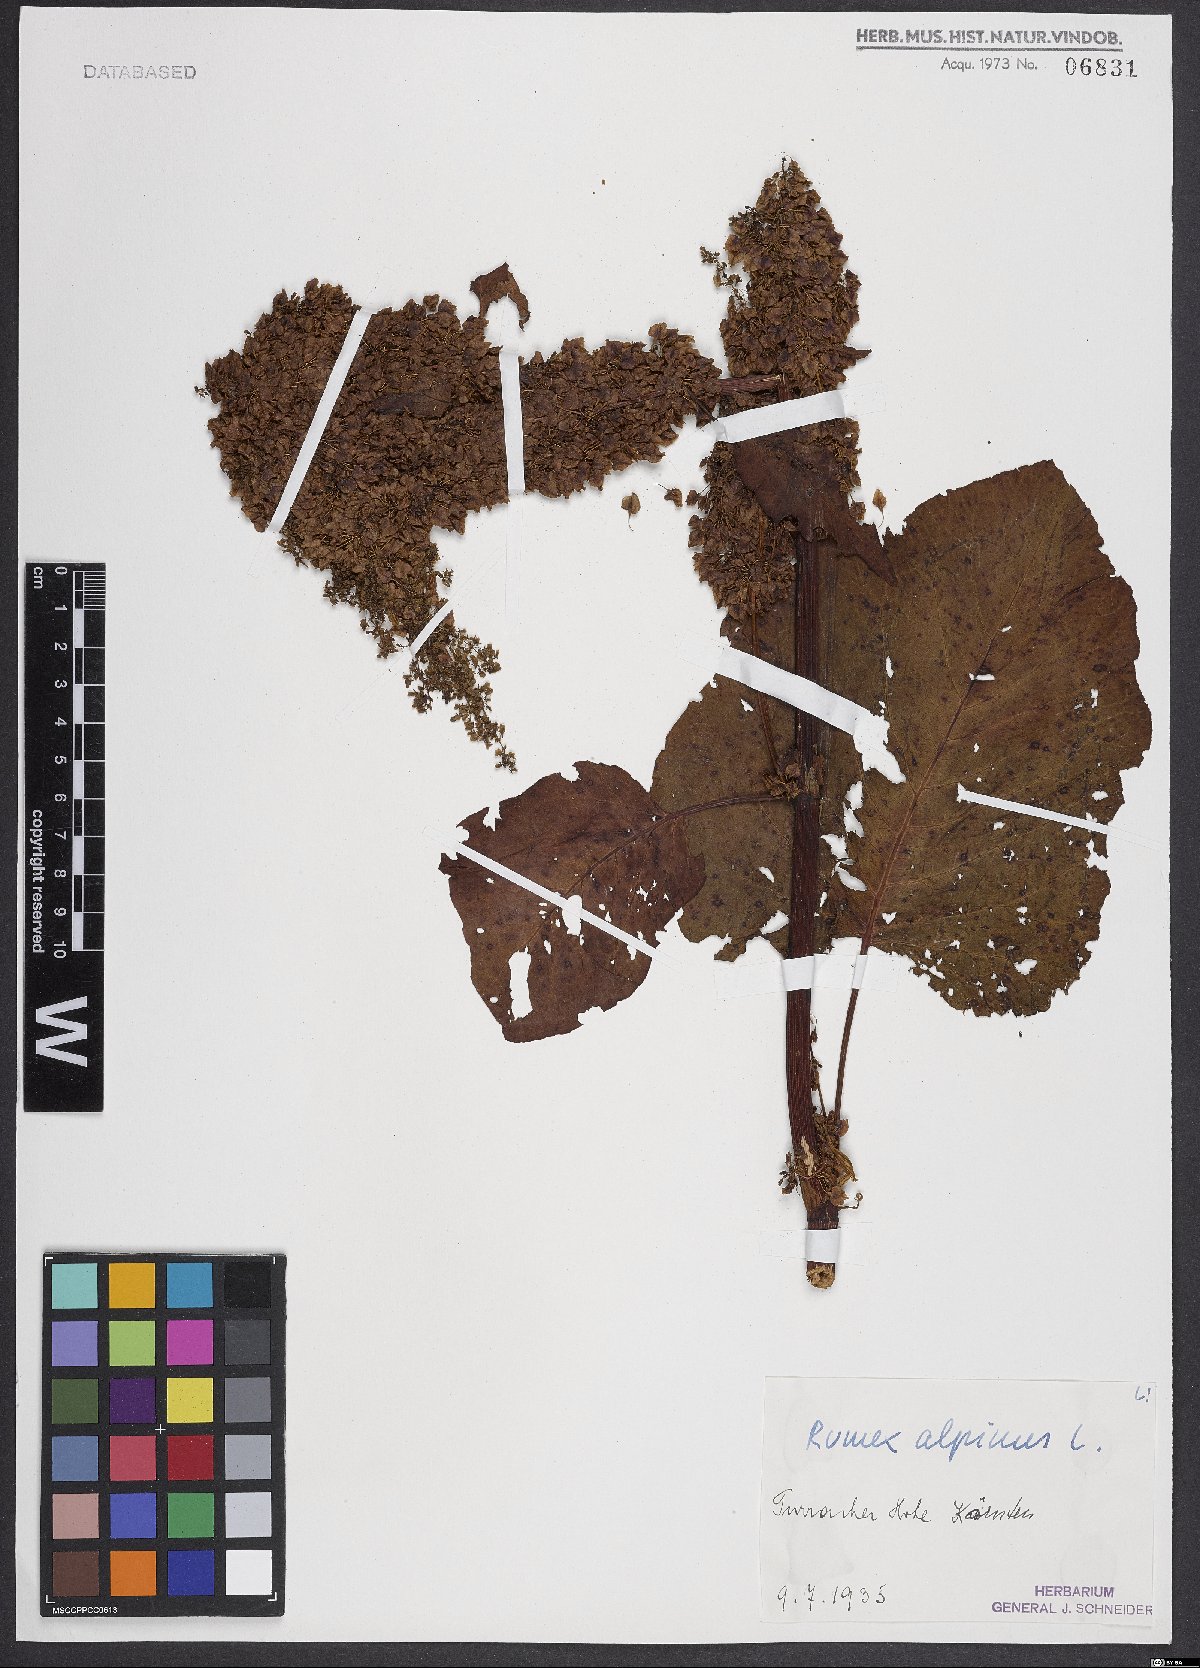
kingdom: Plantae
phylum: Tracheophyta
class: Magnoliopsida
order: Caryophyllales
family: Polygonaceae
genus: Rumex
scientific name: Rumex alpinus
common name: Alpine dock
